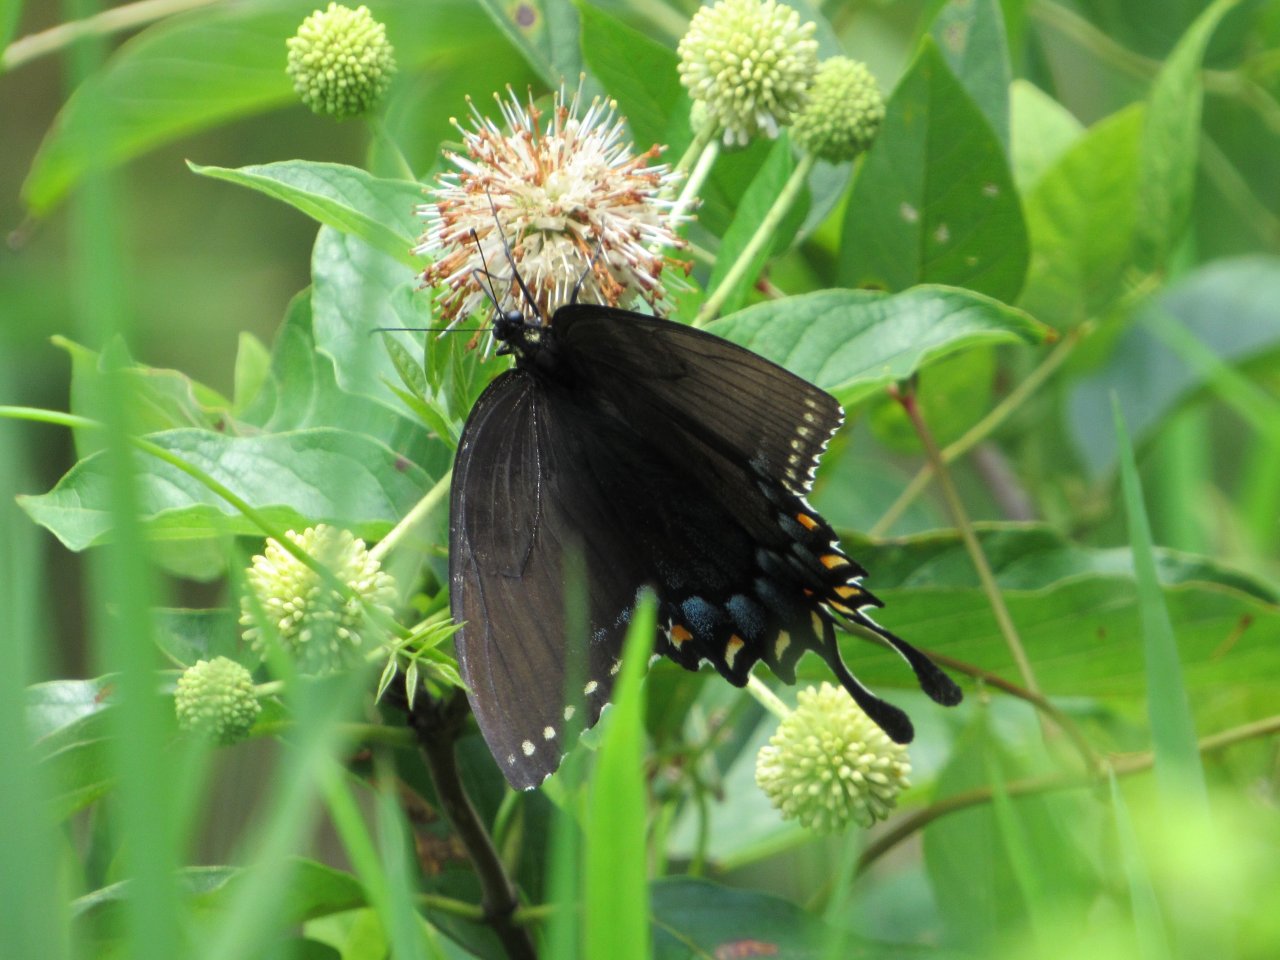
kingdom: Animalia
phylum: Arthropoda
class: Insecta
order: Lepidoptera
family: Papilionidae
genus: Pterourus
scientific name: Pterourus glaucus
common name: Eastern Tiger Swallowtail
